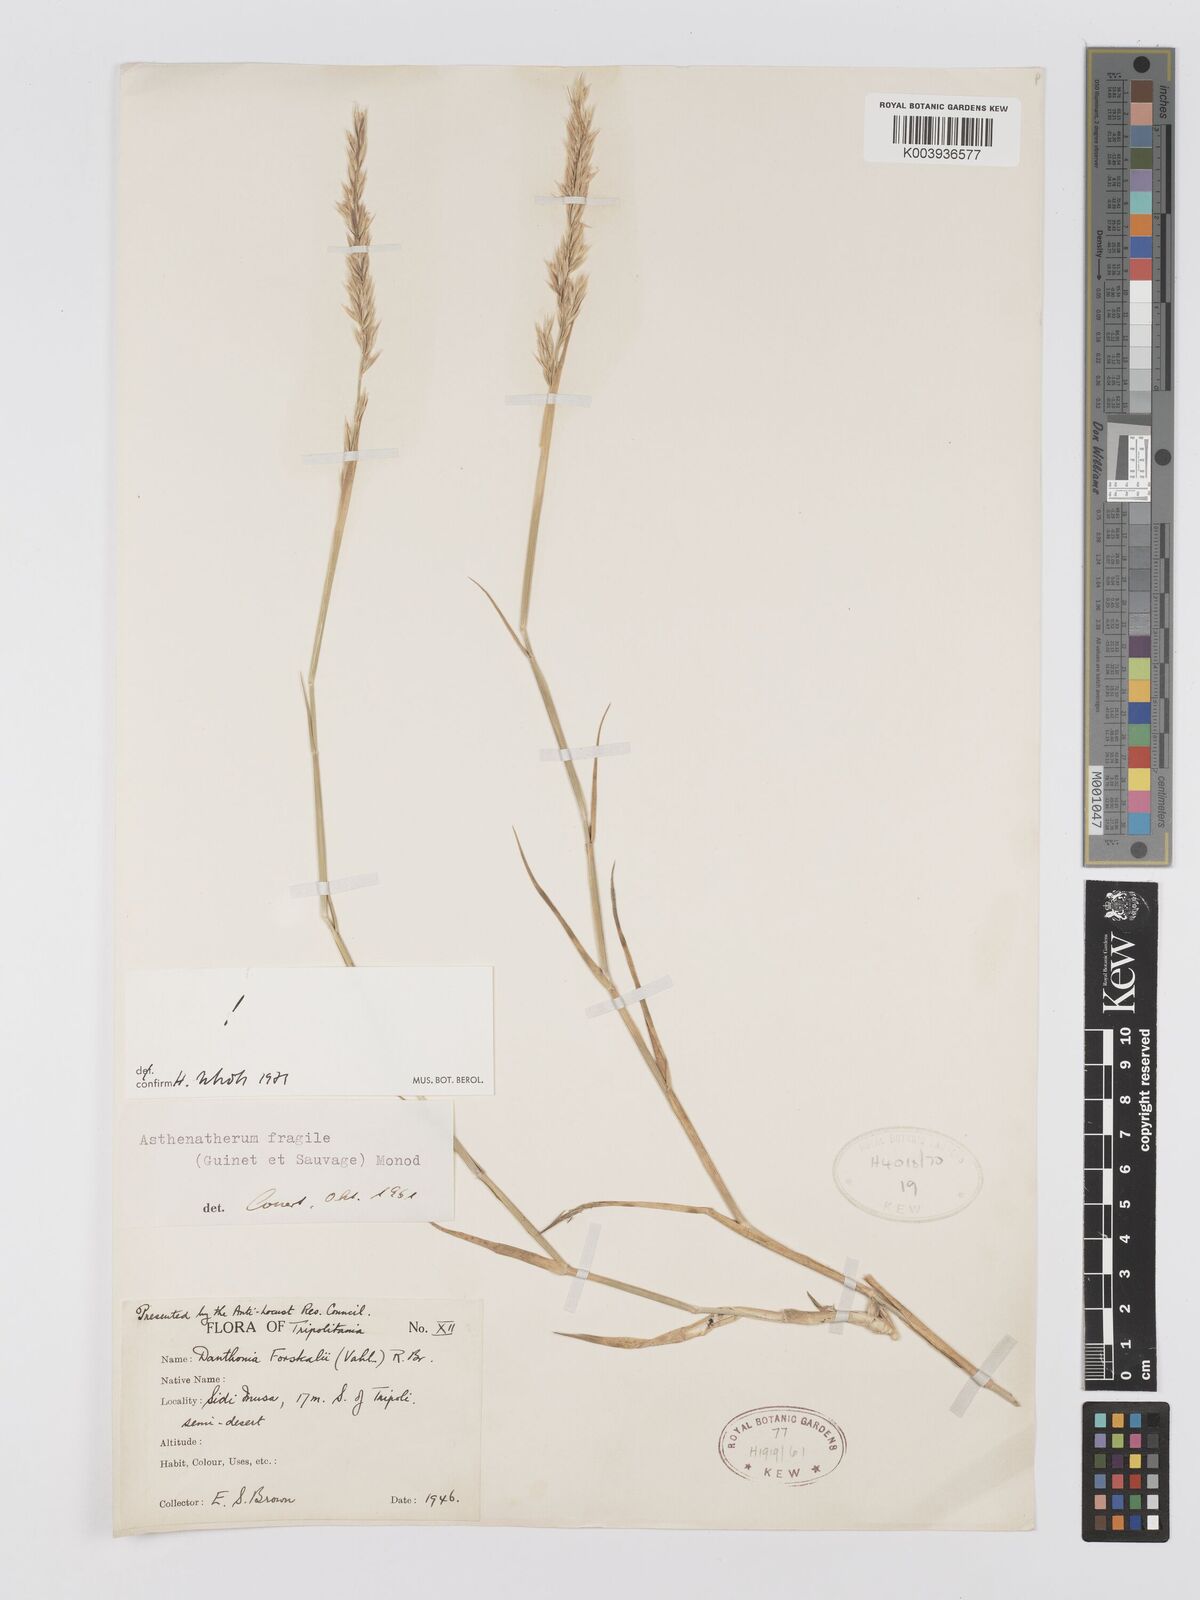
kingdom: Plantae
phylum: Tracheophyta
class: Liliopsida
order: Poales
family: Poaceae
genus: Centropodia
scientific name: Centropodia fragilis
